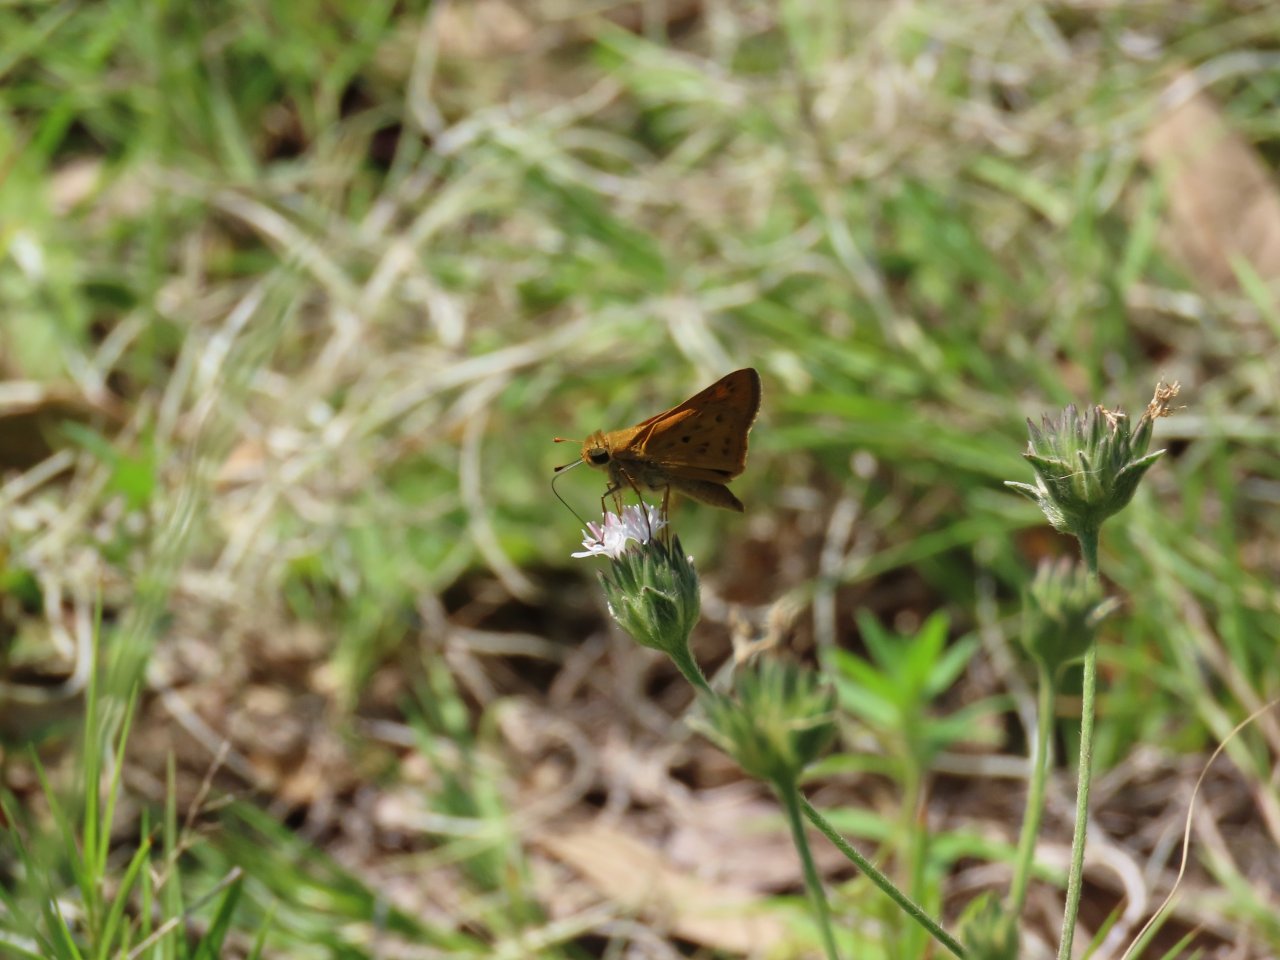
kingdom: Animalia
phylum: Arthropoda
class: Insecta
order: Lepidoptera
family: Hesperiidae
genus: Hylephila
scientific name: Hylephila phyleus
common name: Fiery Skipper
